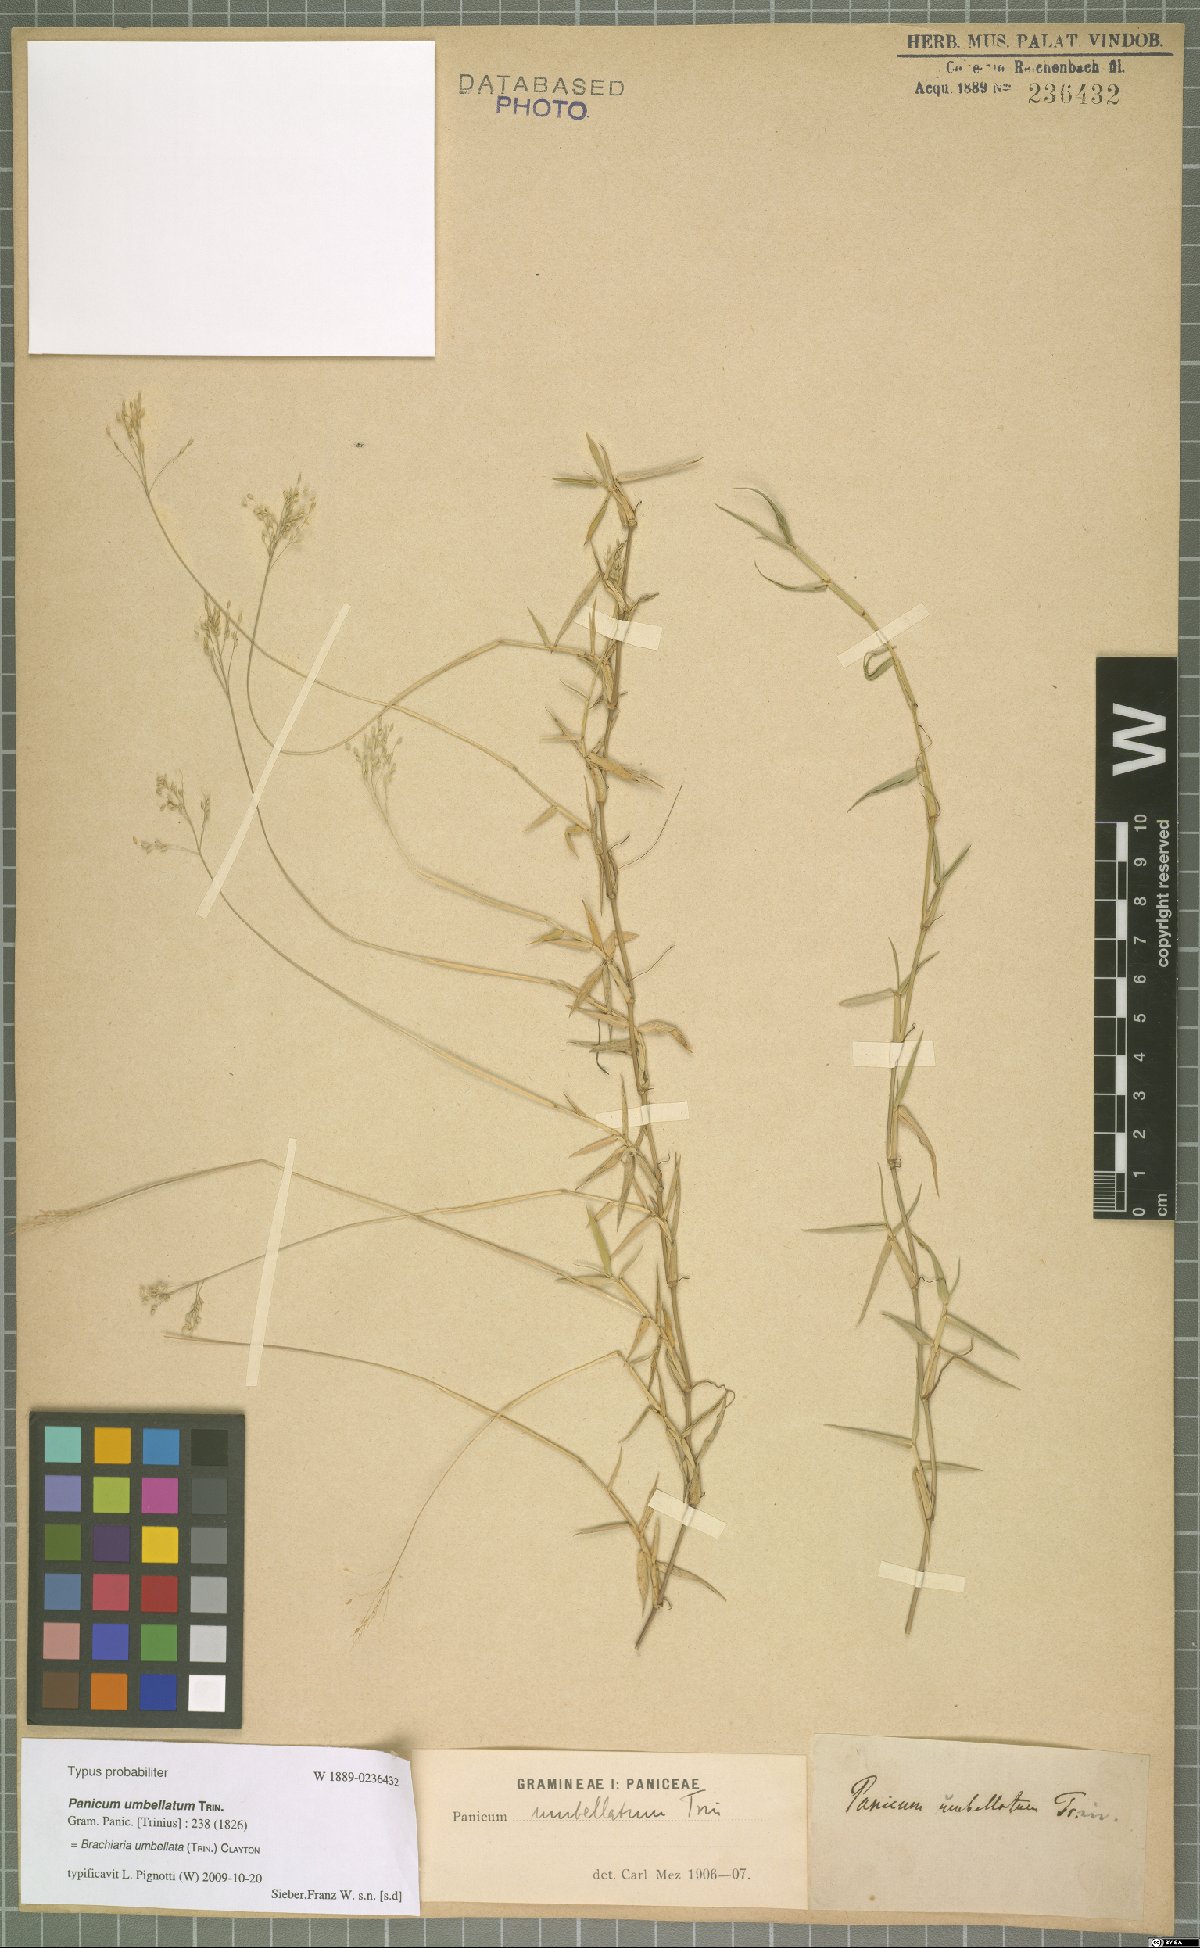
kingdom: Plantae
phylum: Tracheophyta
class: Liliopsida
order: Poales
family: Poaceae
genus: Urochloa
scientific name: Urochloa Brachiaria umbellata
